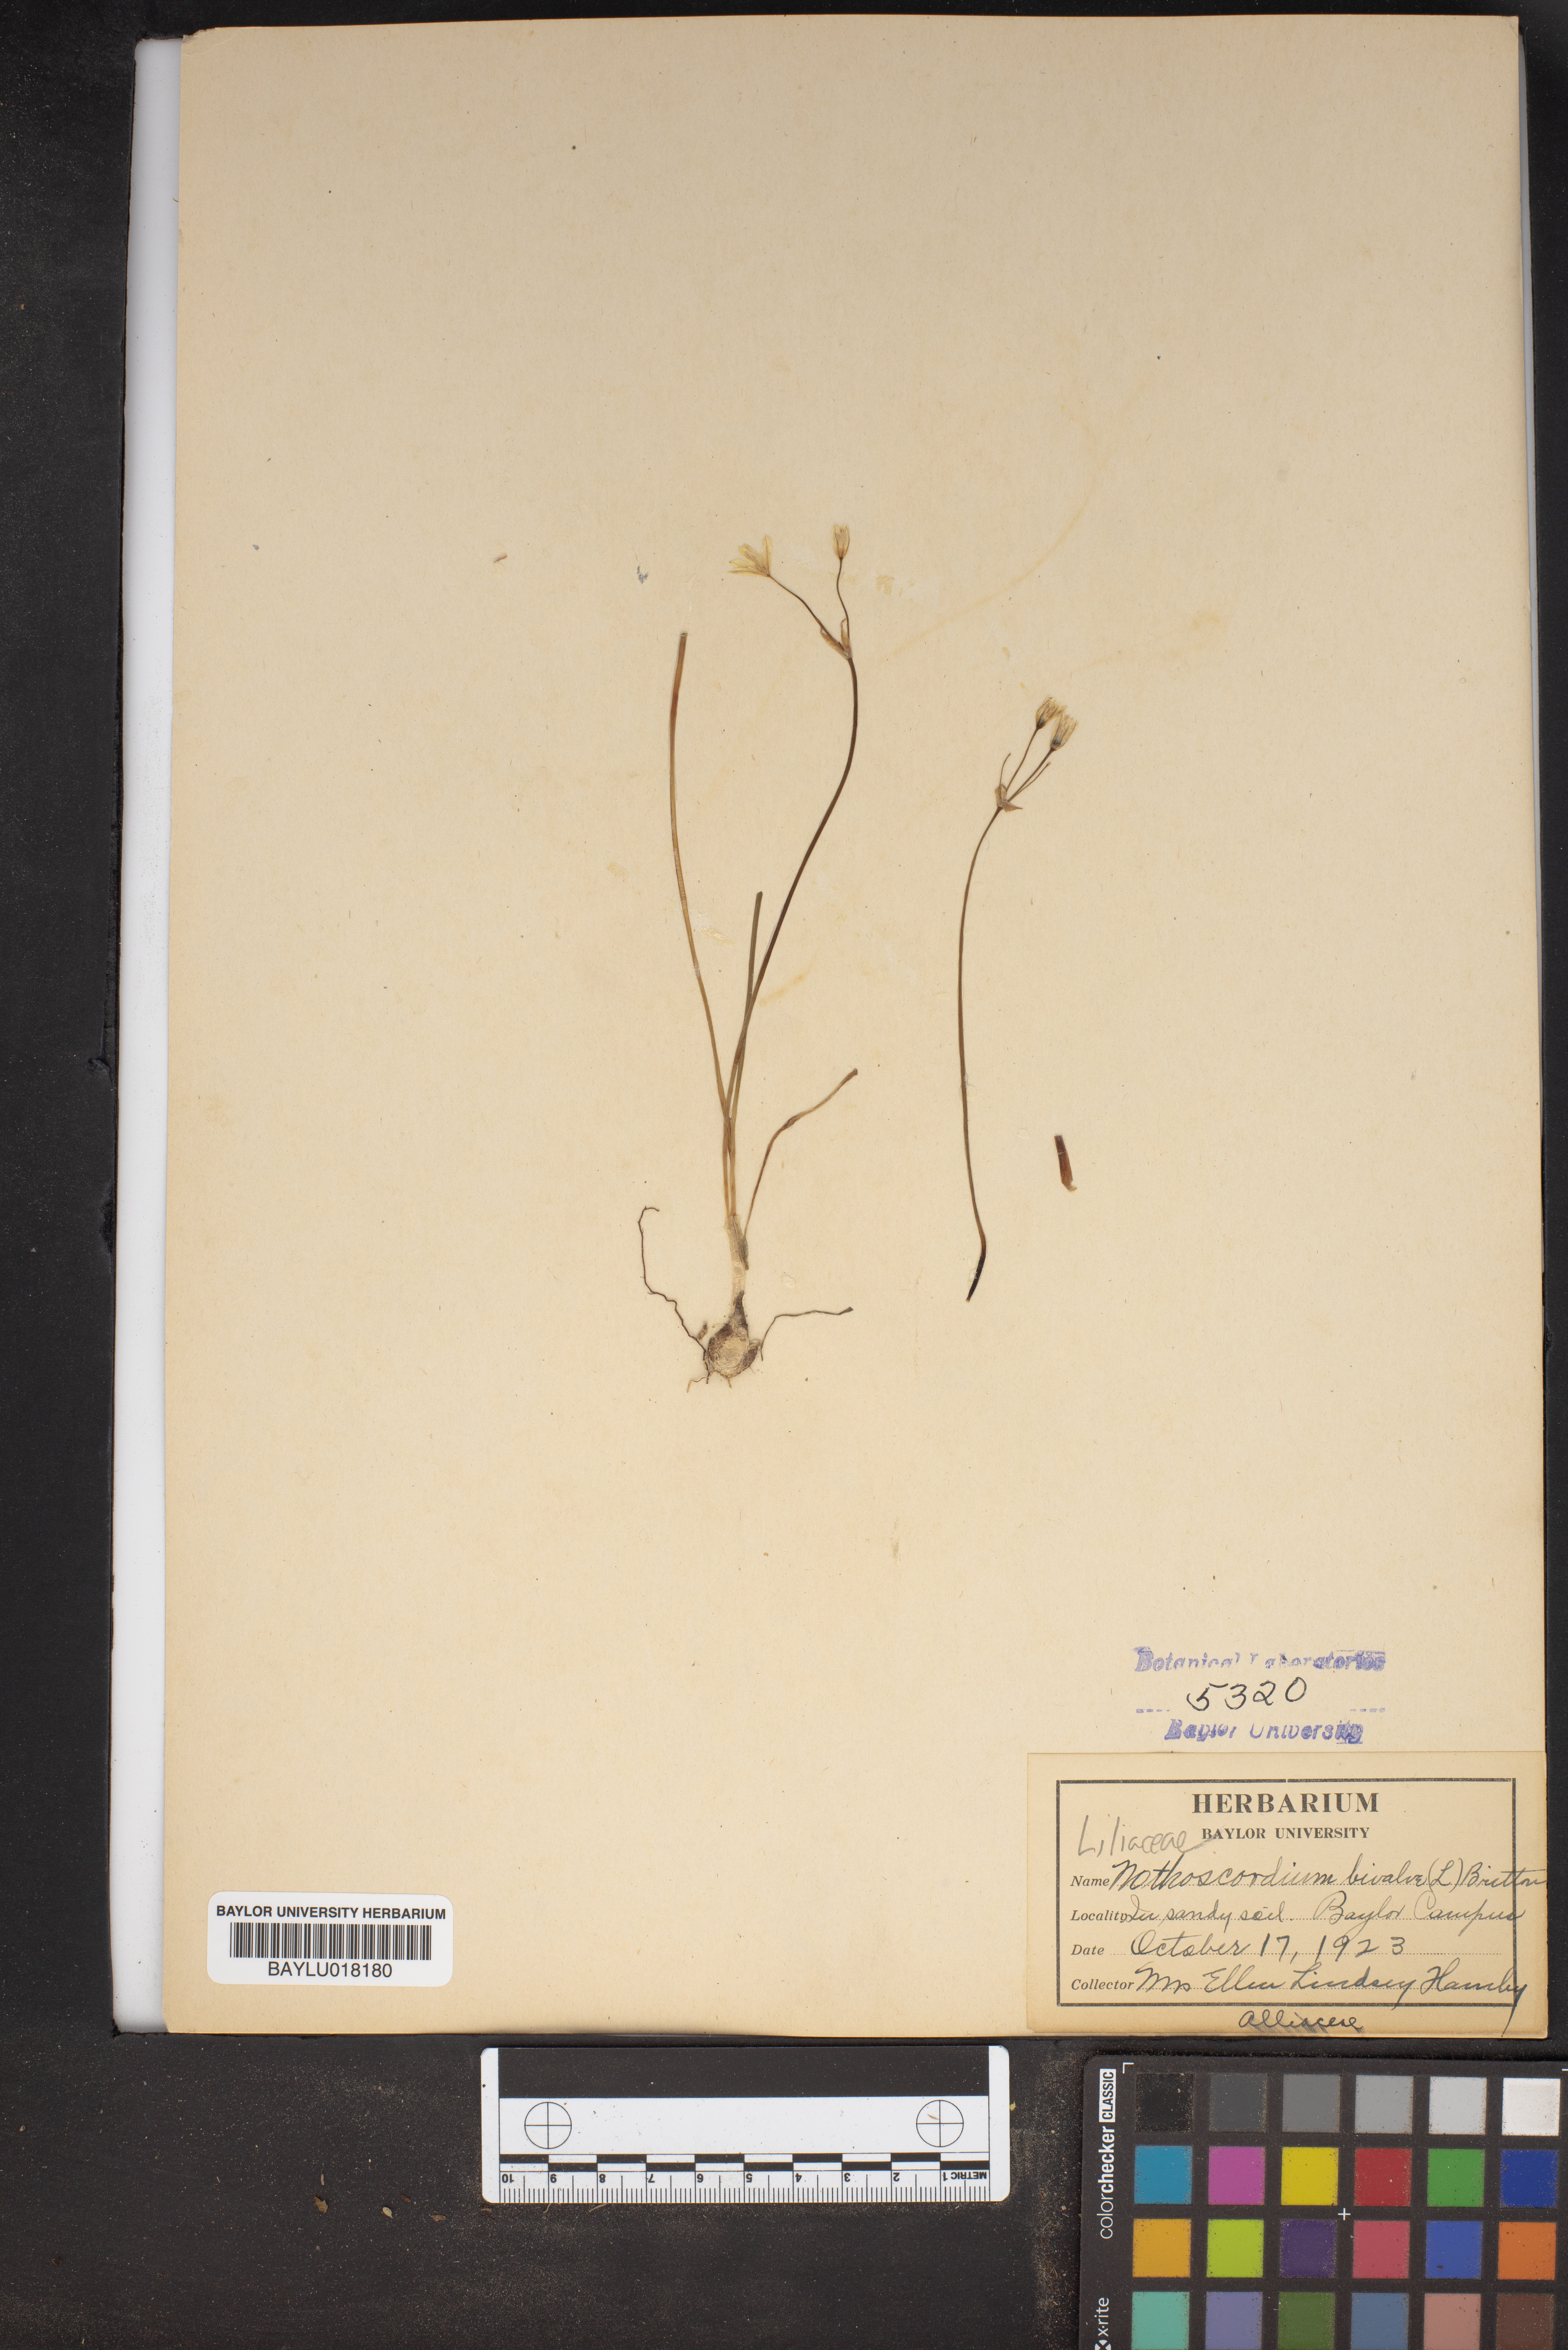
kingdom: Plantae
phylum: Tracheophyta
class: Liliopsida
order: Asparagales
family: Amaryllidaceae
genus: Nothoscordum
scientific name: Nothoscordum bivalve
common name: Crow-poison
